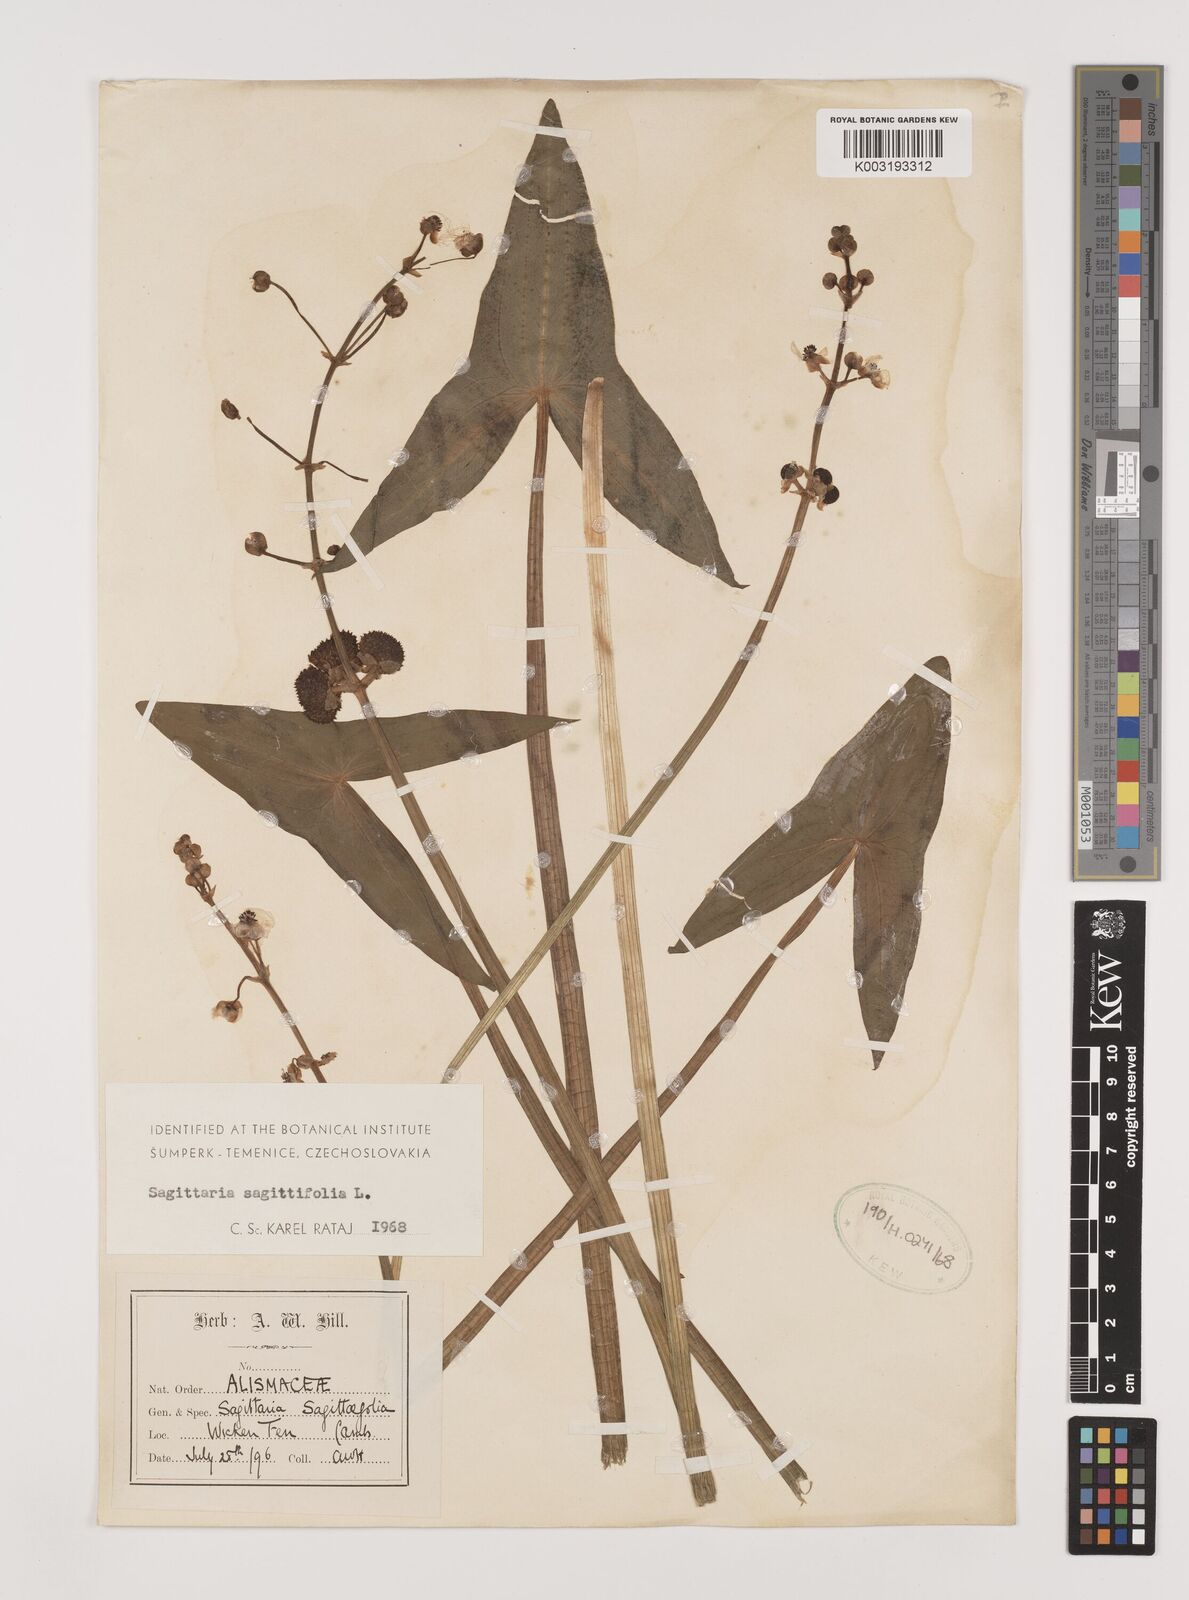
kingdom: Plantae
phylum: Tracheophyta
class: Liliopsida
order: Alismatales
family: Alismataceae
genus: Sagittaria
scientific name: Sagittaria sagittifolia
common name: Arrowhead
